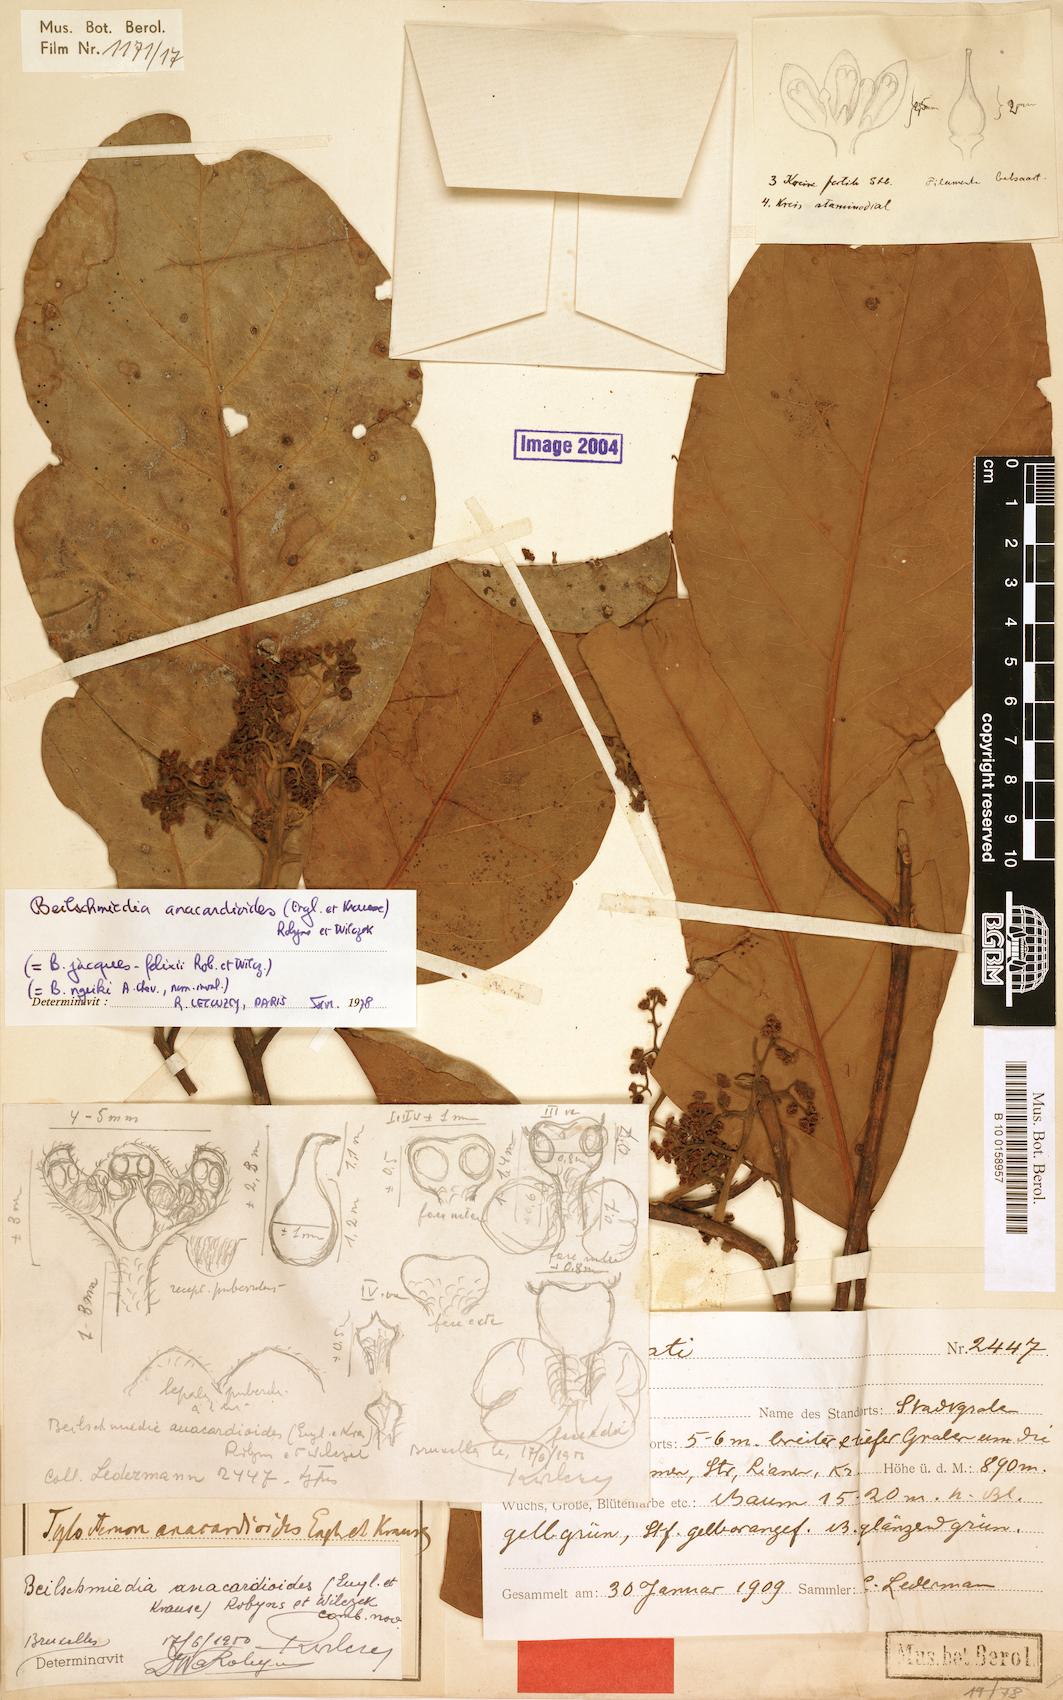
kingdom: Plantae
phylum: Tracheophyta
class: Magnoliopsida
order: Laurales
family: Lauraceae
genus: Beilschmiedia
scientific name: Beilschmiedia anacardioides
